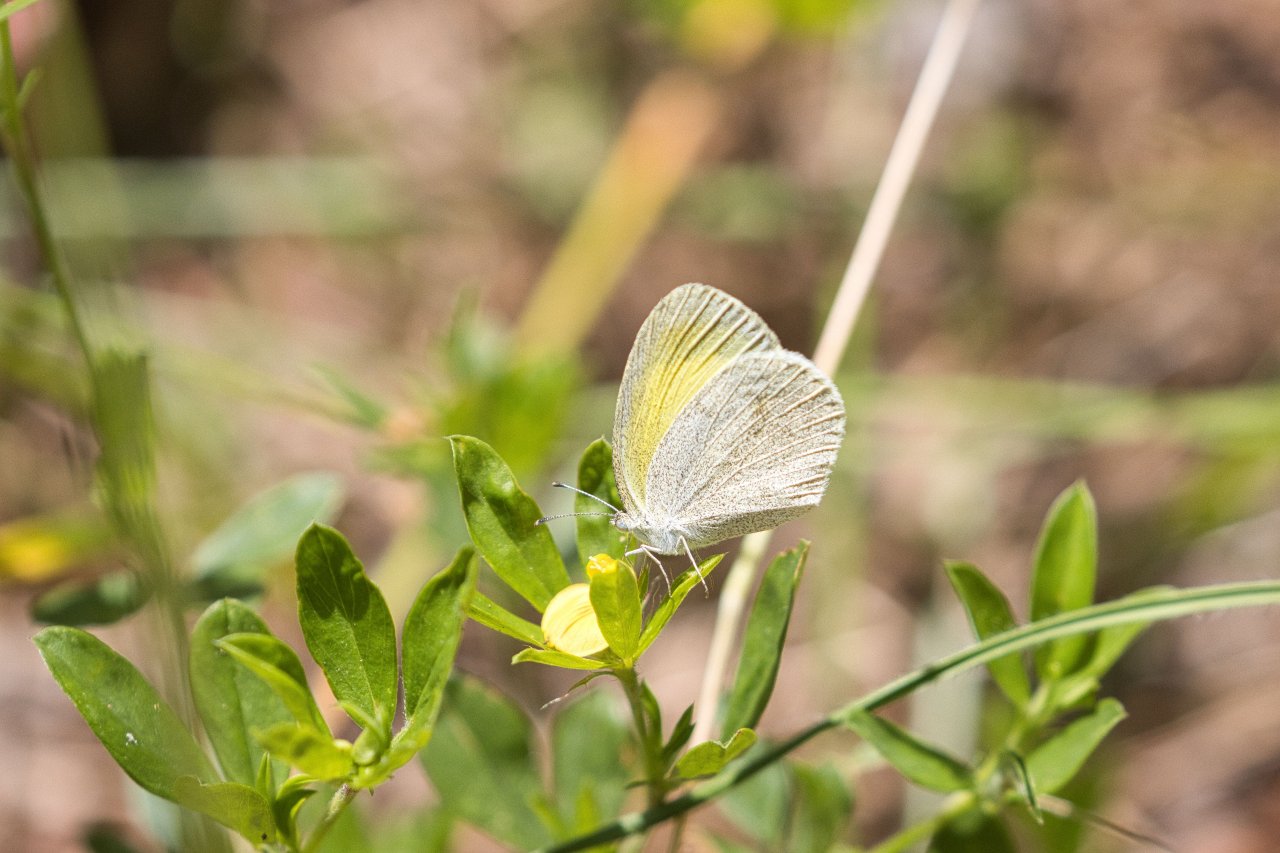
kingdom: Animalia
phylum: Arthropoda
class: Insecta
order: Lepidoptera
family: Pieridae
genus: Eurema
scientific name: Eurema daira
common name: Barred Yellow
